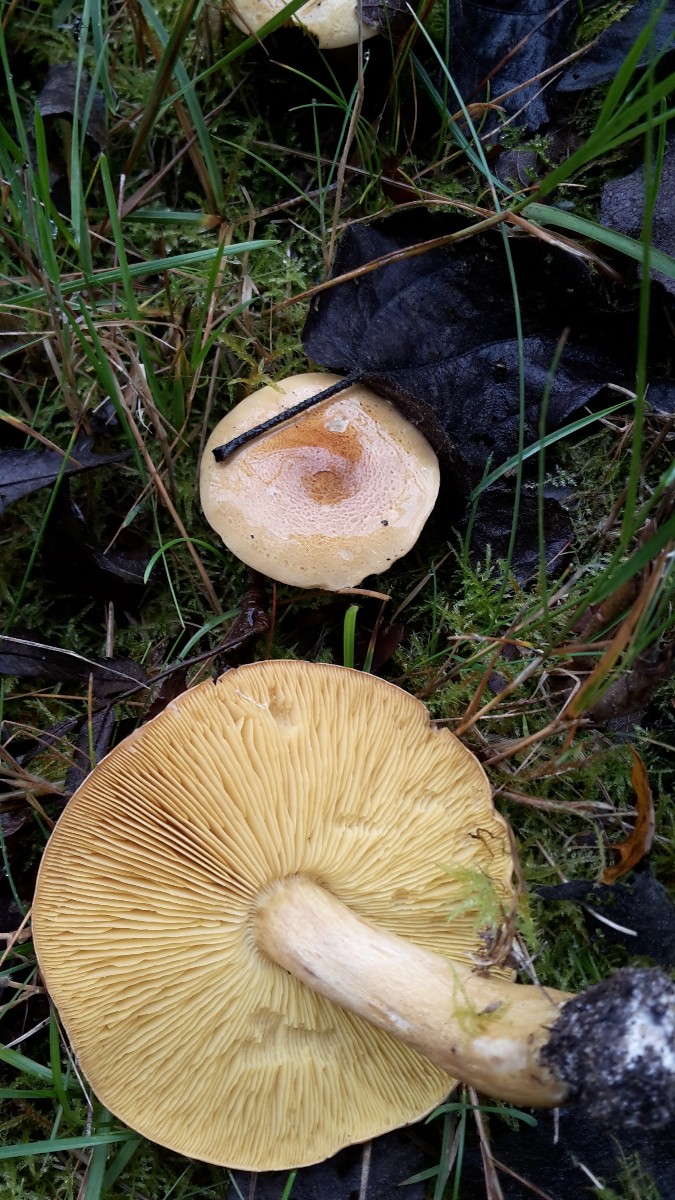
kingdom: Fungi
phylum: Basidiomycota
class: Agaricomycetes
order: Agaricales
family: Tricholomataceae
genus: Tricholoma
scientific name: Tricholoma frondosae
